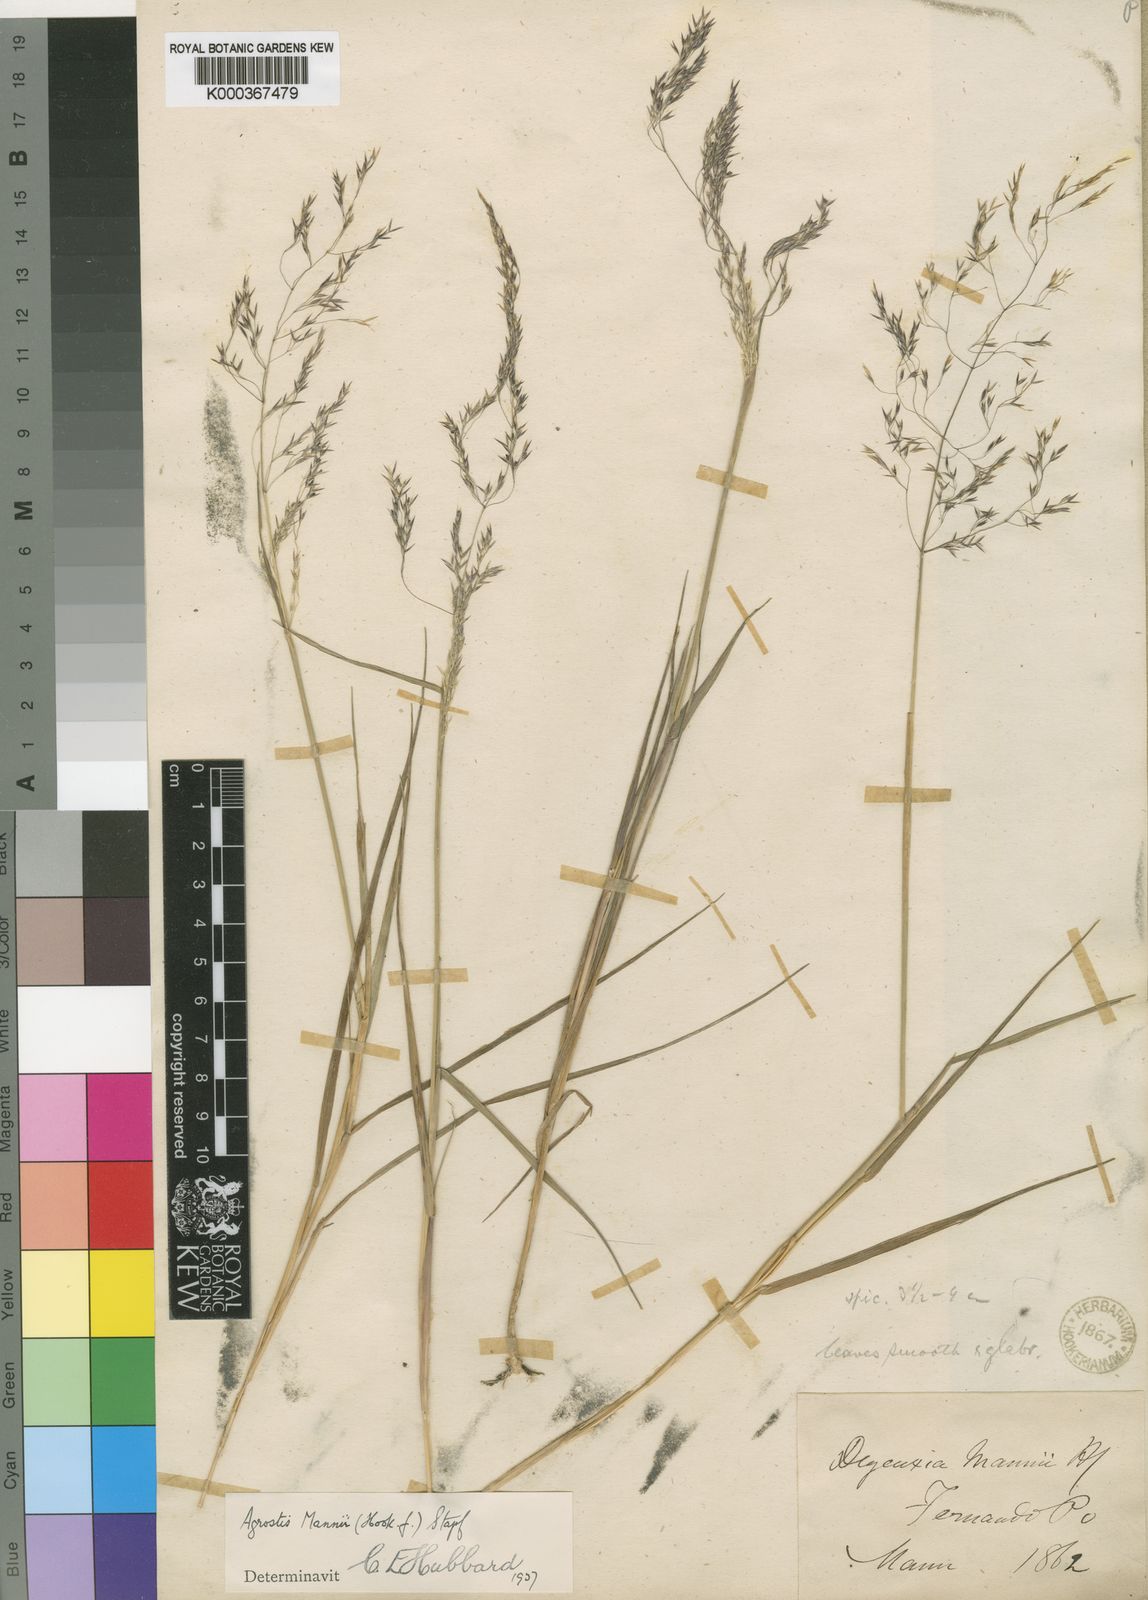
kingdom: Plantae
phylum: Tracheophyta
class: Liliopsida
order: Poales
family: Poaceae
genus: Agrostis
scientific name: Agrostis mannii
